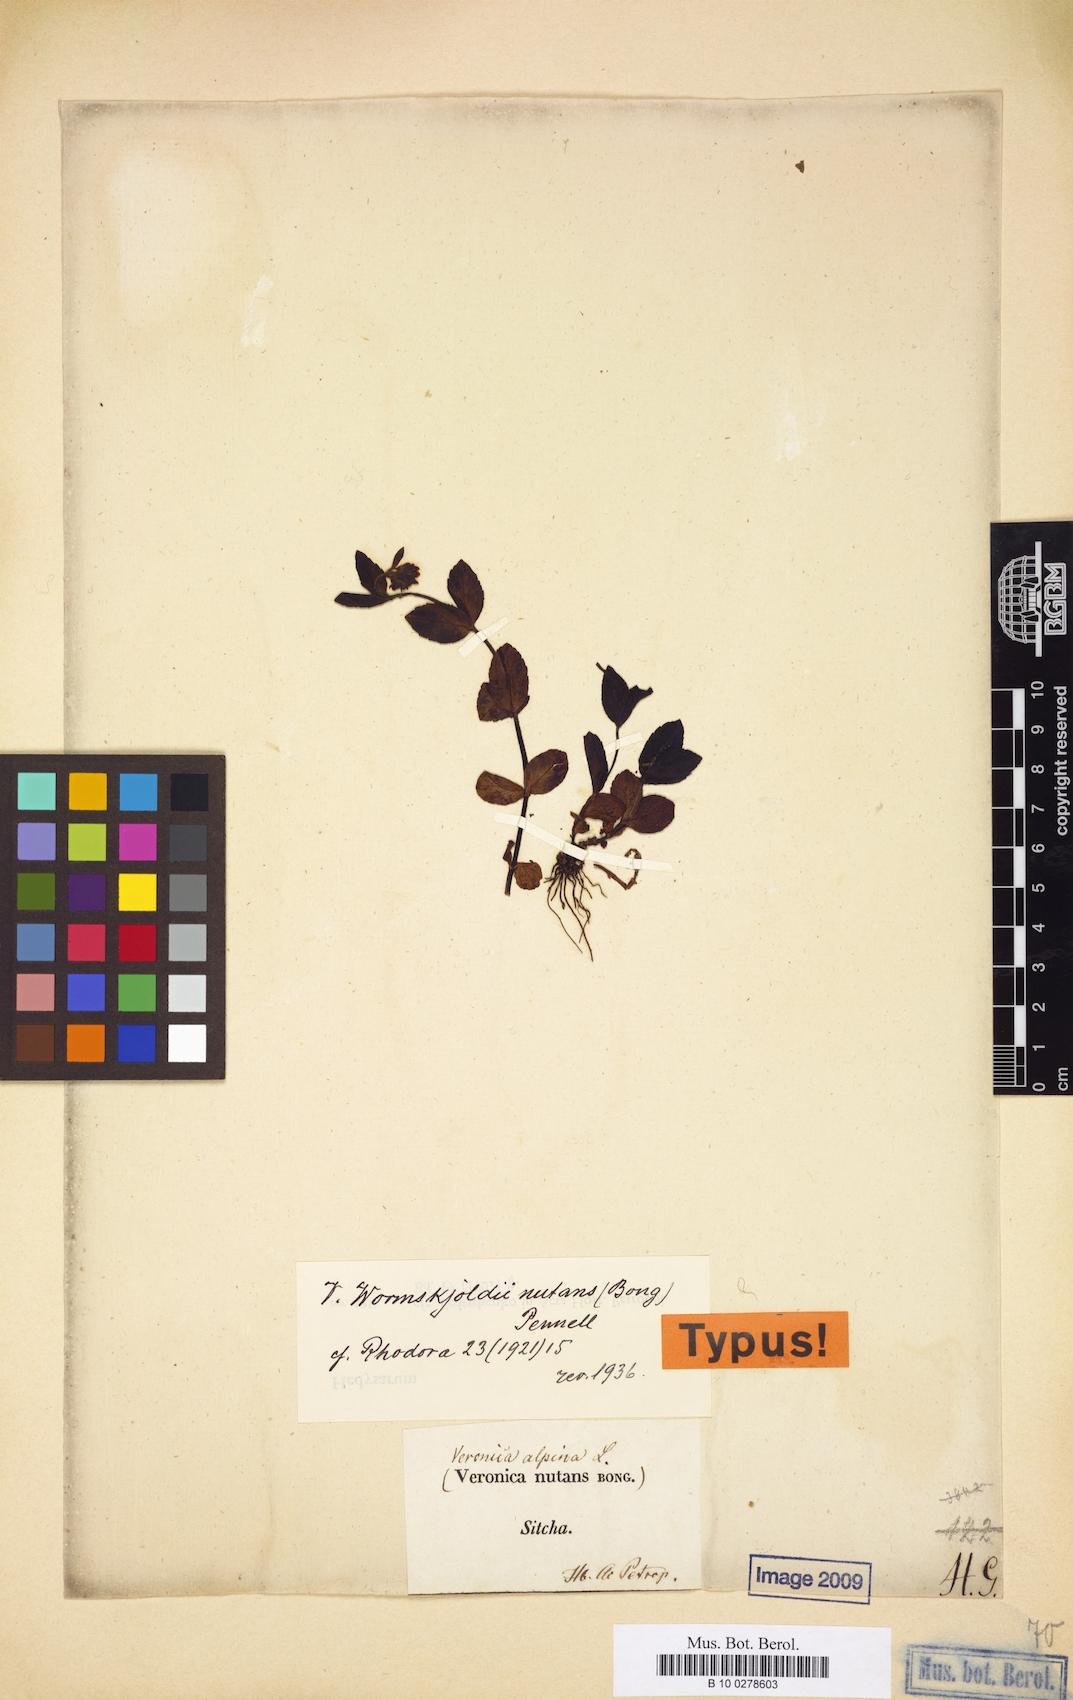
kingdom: Plantae
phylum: Tracheophyta
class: Magnoliopsida
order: Lamiales
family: Plantaginaceae
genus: Veronica
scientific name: Veronica wormskjoldii
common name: American alpine speedwell
